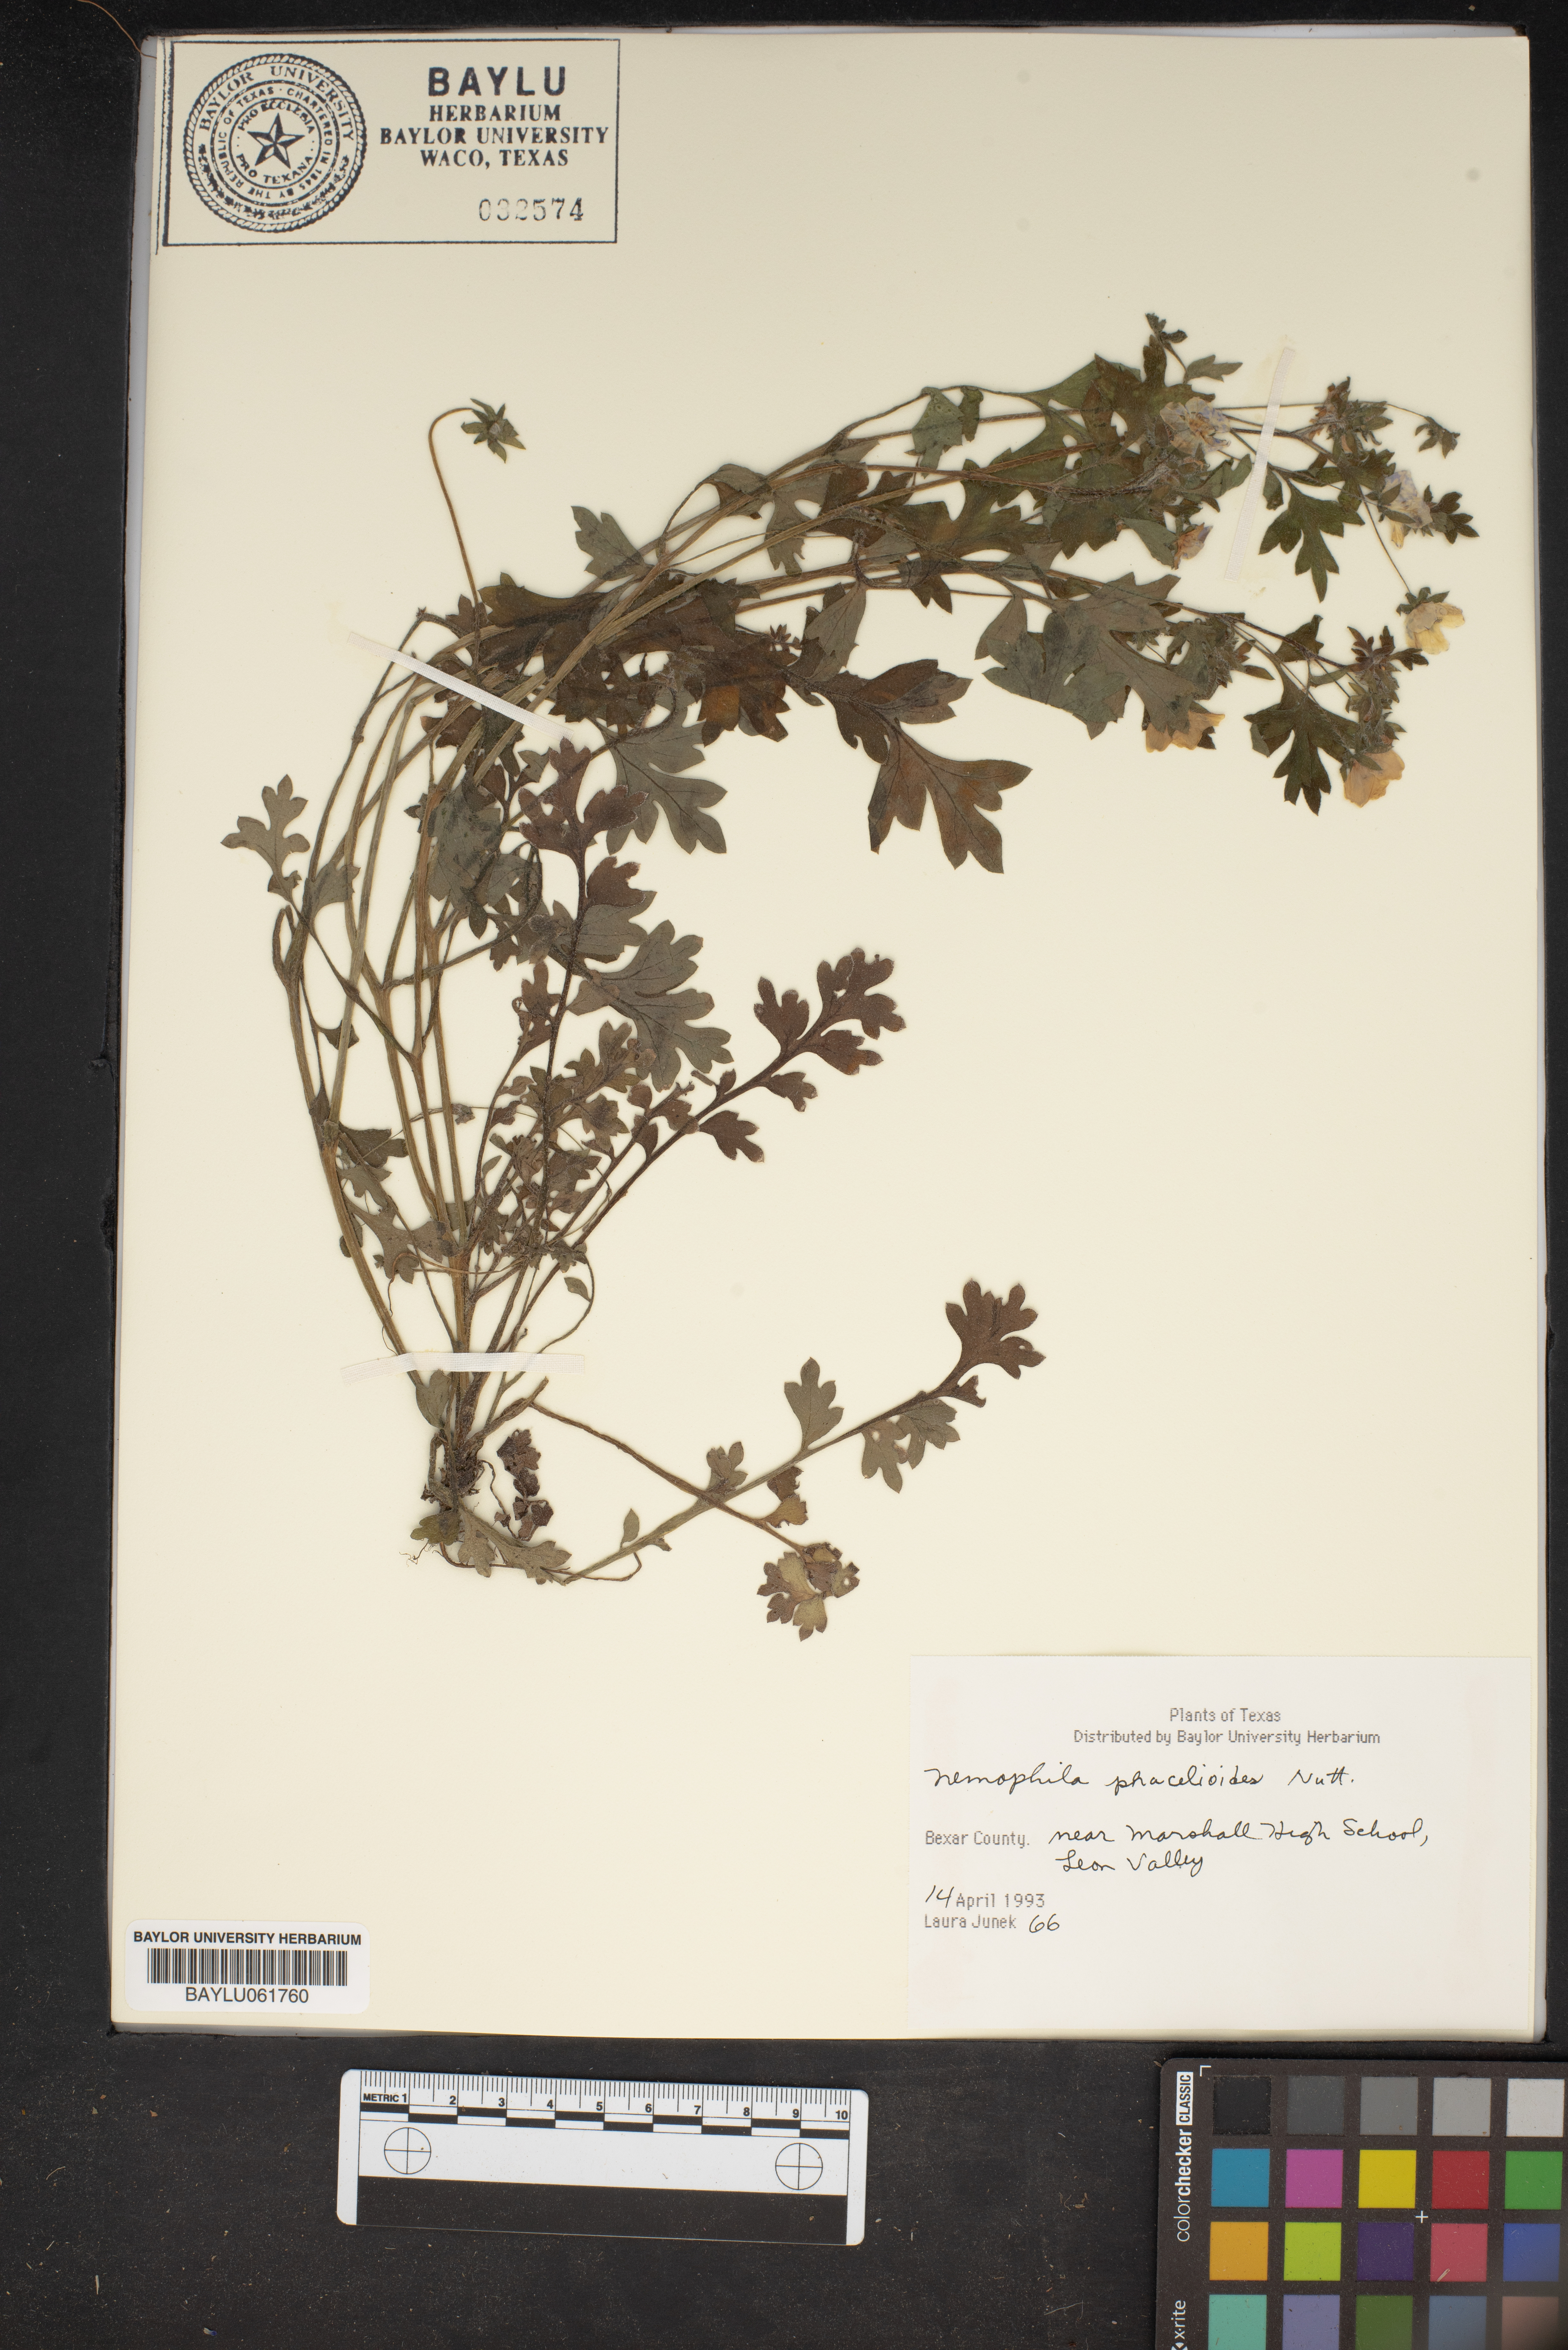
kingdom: Plantae
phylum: Tracheophyta
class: Magnoliopsida
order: Boraginales
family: Hydrophyllaceae
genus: Nemophila
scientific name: Nemophila phacelioides
